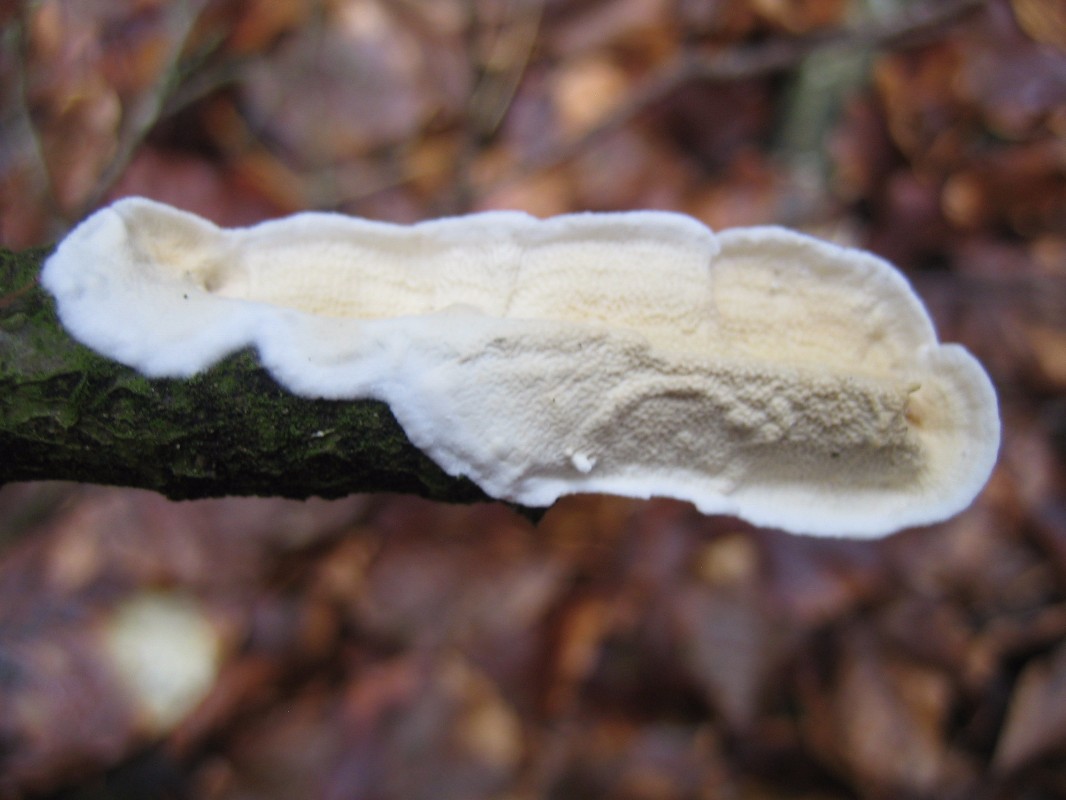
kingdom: Fungi
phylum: Basidiomycota
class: Agaricomycetes
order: Polyporales
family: Irpicaceae
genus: Byssomerulius
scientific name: Byssomerulius corium
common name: læder-åresvamp
